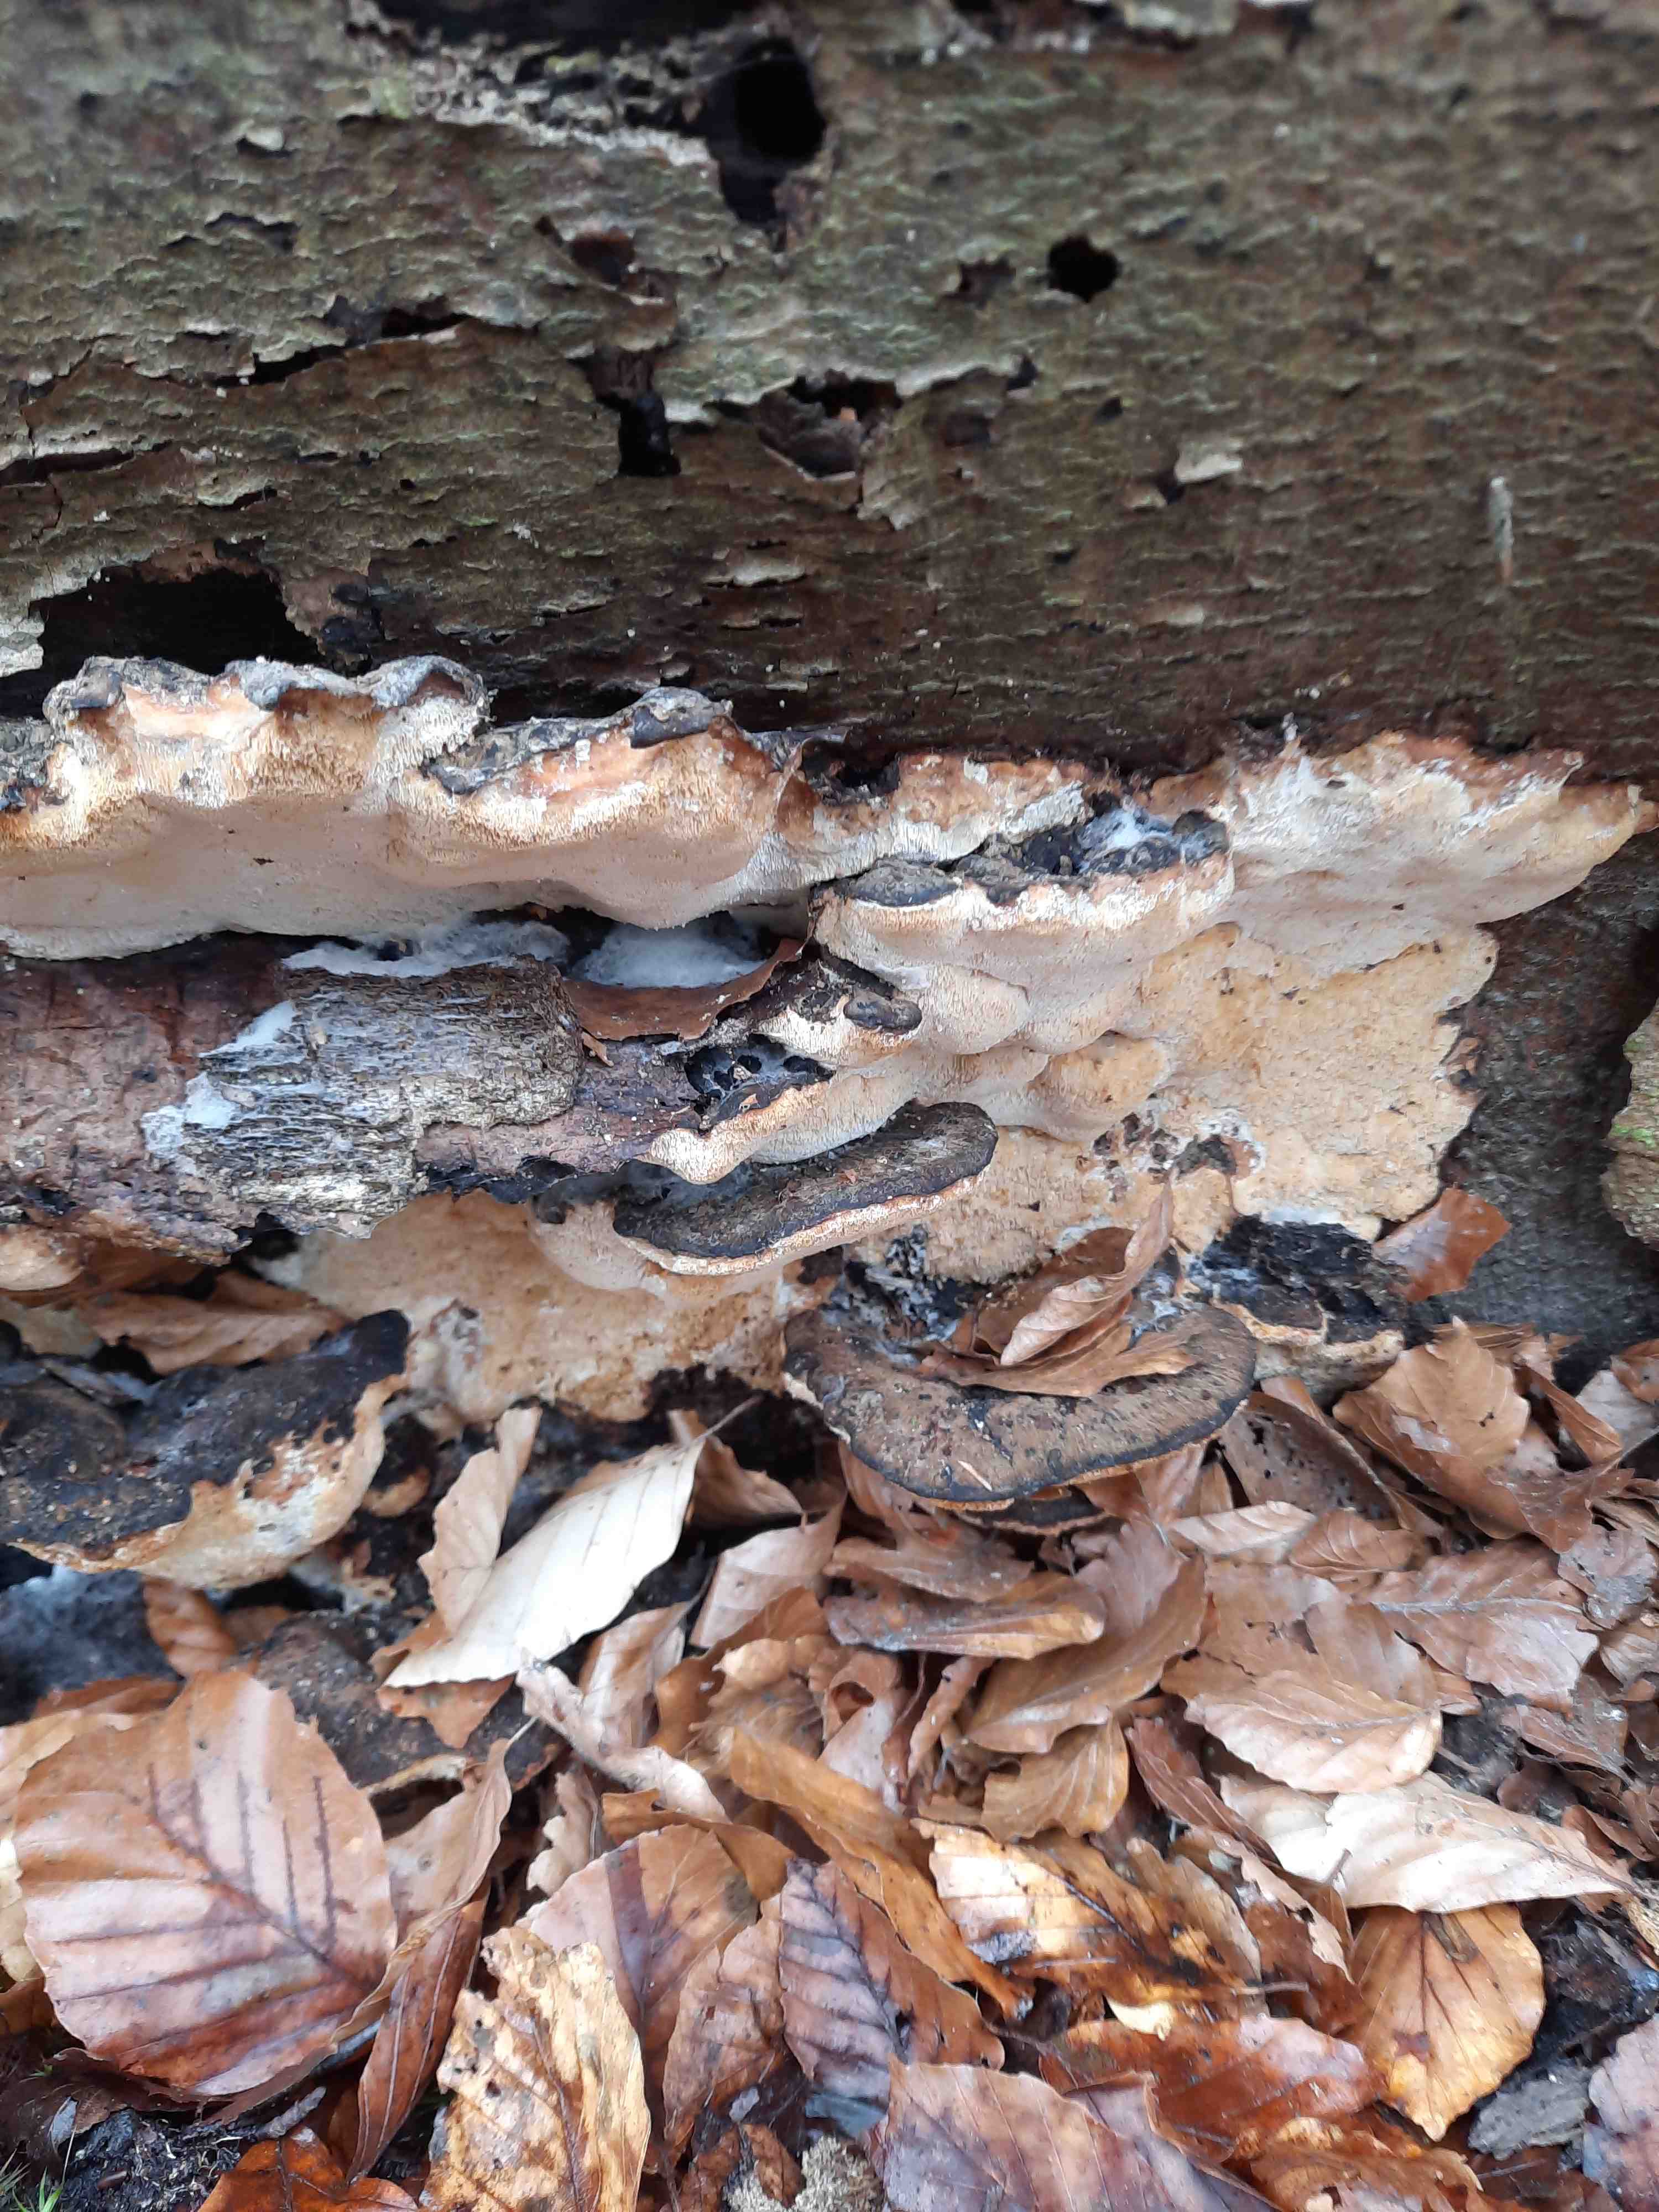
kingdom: Fungi
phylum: Basidiomycota
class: Agaricomycetes
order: Polyporales
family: Ischnodermataceae
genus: Ischnoderma
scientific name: Ischnoderma resinosum
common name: løv-tjæreporesvamp
